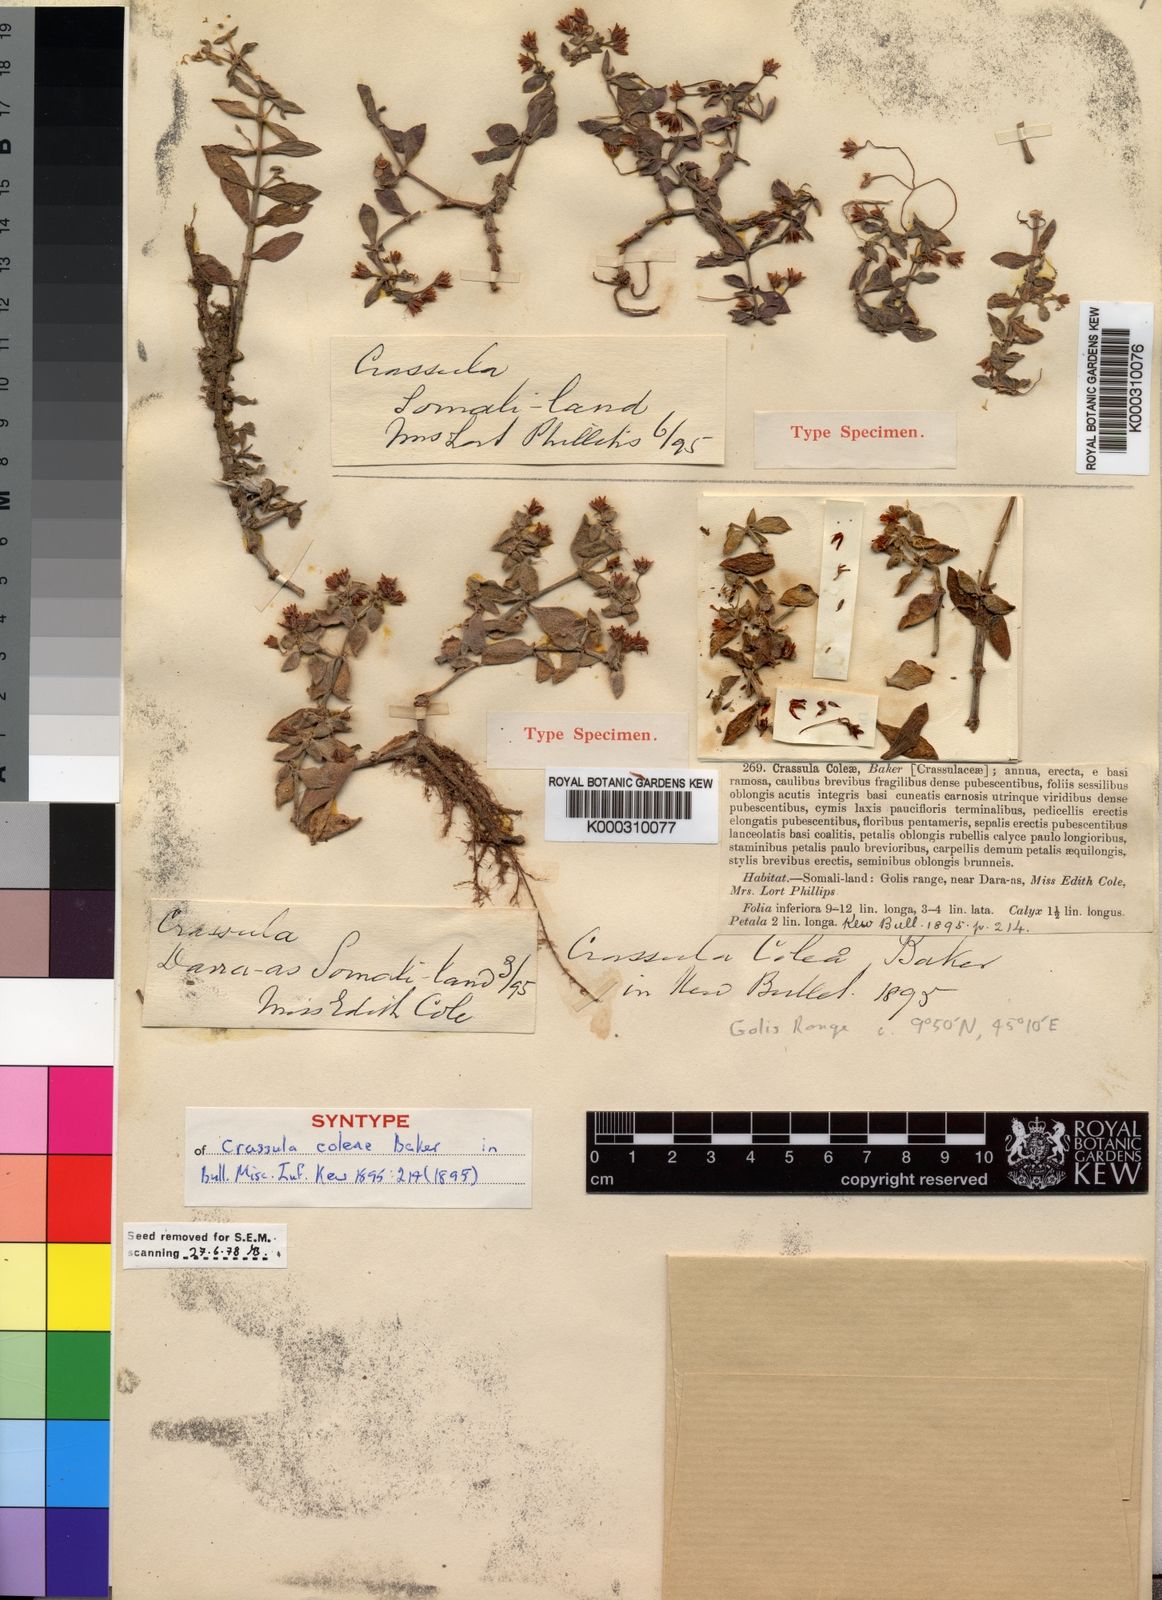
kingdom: Plantae
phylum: Tracheophyta
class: Magnoliopsida
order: Saxifragales
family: Crassulaceae
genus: Crassula
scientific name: Crassula volkensii
